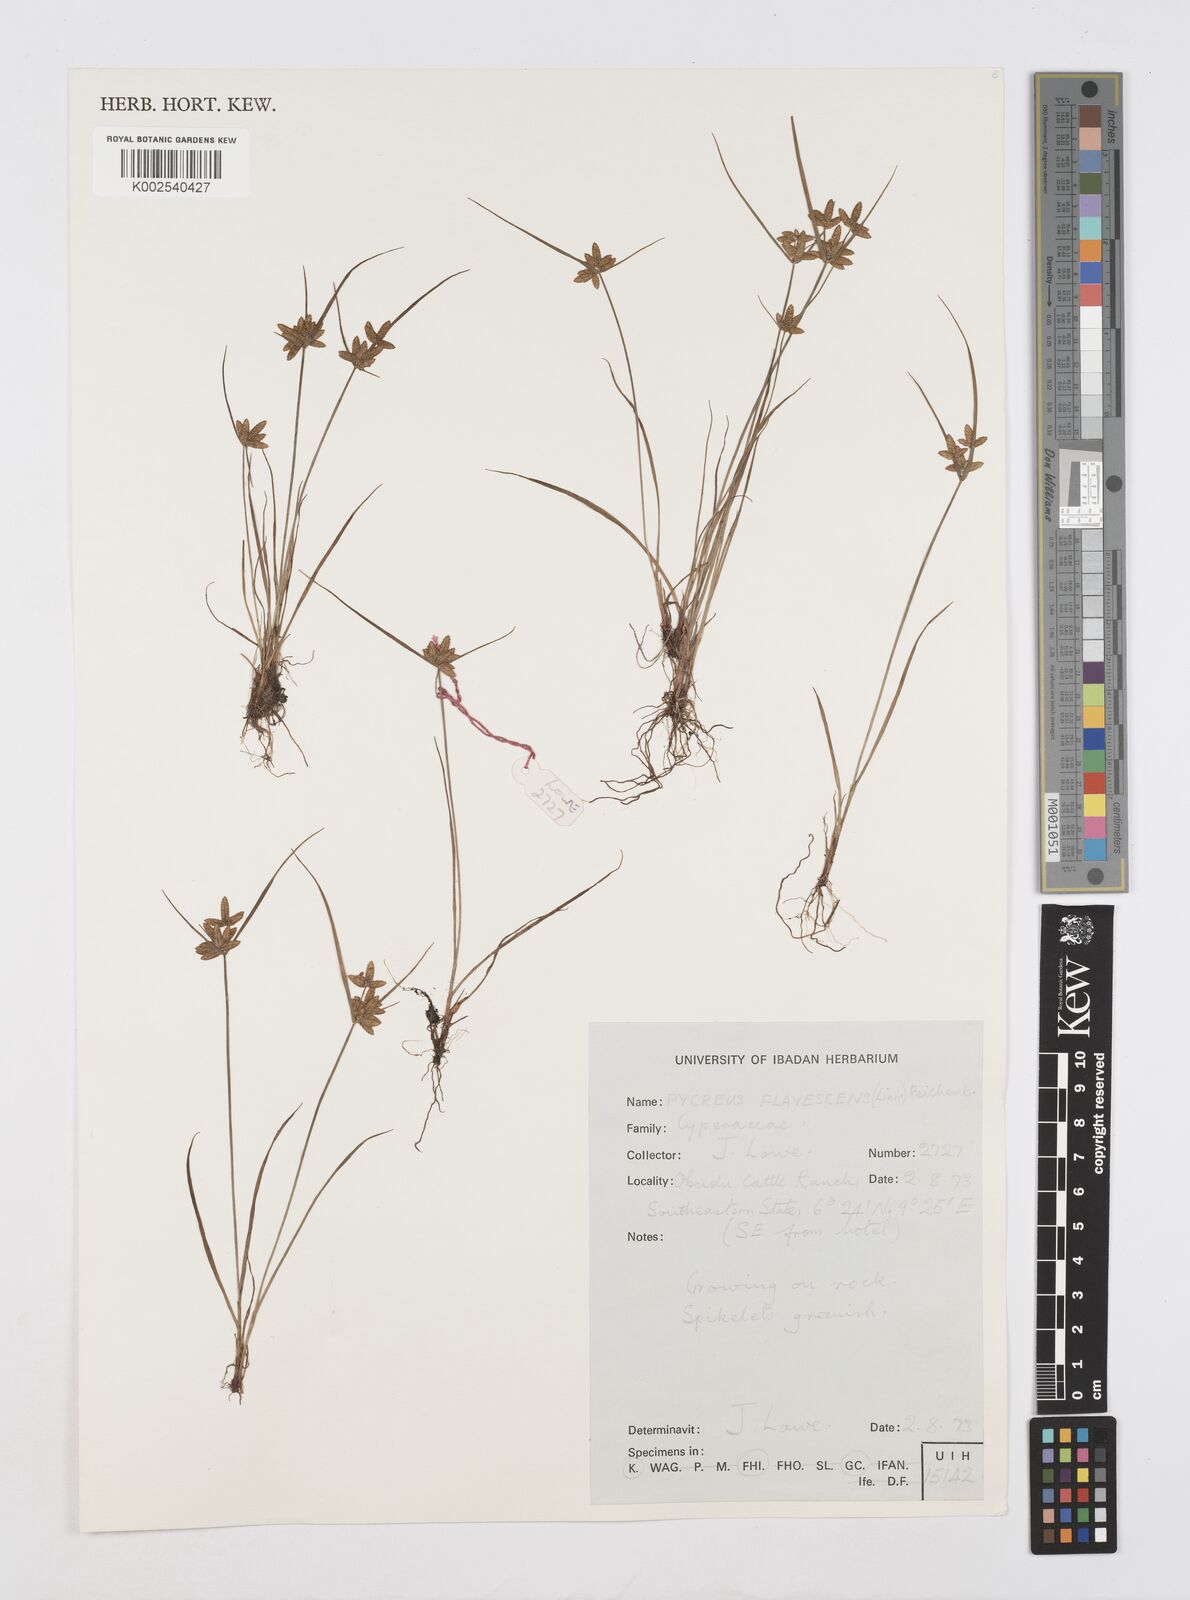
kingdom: Plantae
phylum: Tracheophyta
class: Liliopsida
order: Poales
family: Cyperaceae
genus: Cyperus
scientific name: Cyperus flavescens
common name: Yellow galingale
